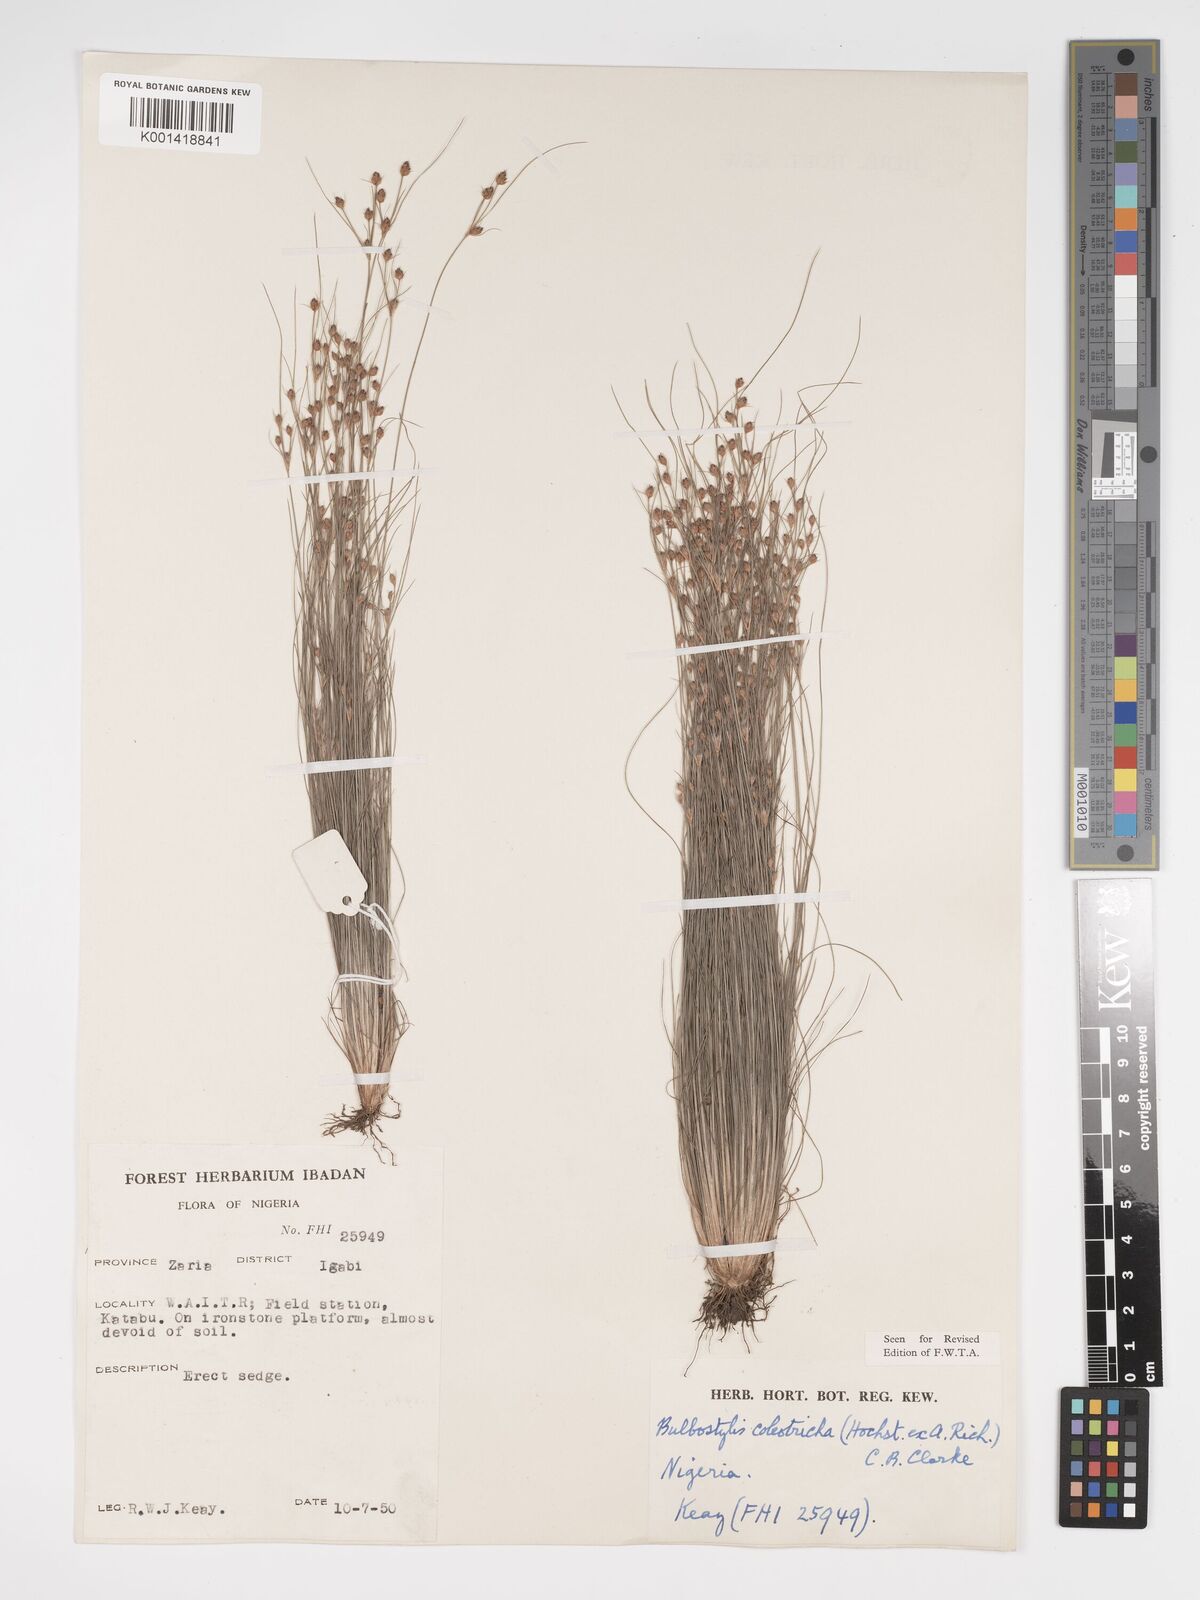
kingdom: Plantae
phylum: Tracheophyta
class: Liliopsida
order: Poales
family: Cyperaceae
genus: Bulbostylis
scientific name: Bulbostylis coleotricha
